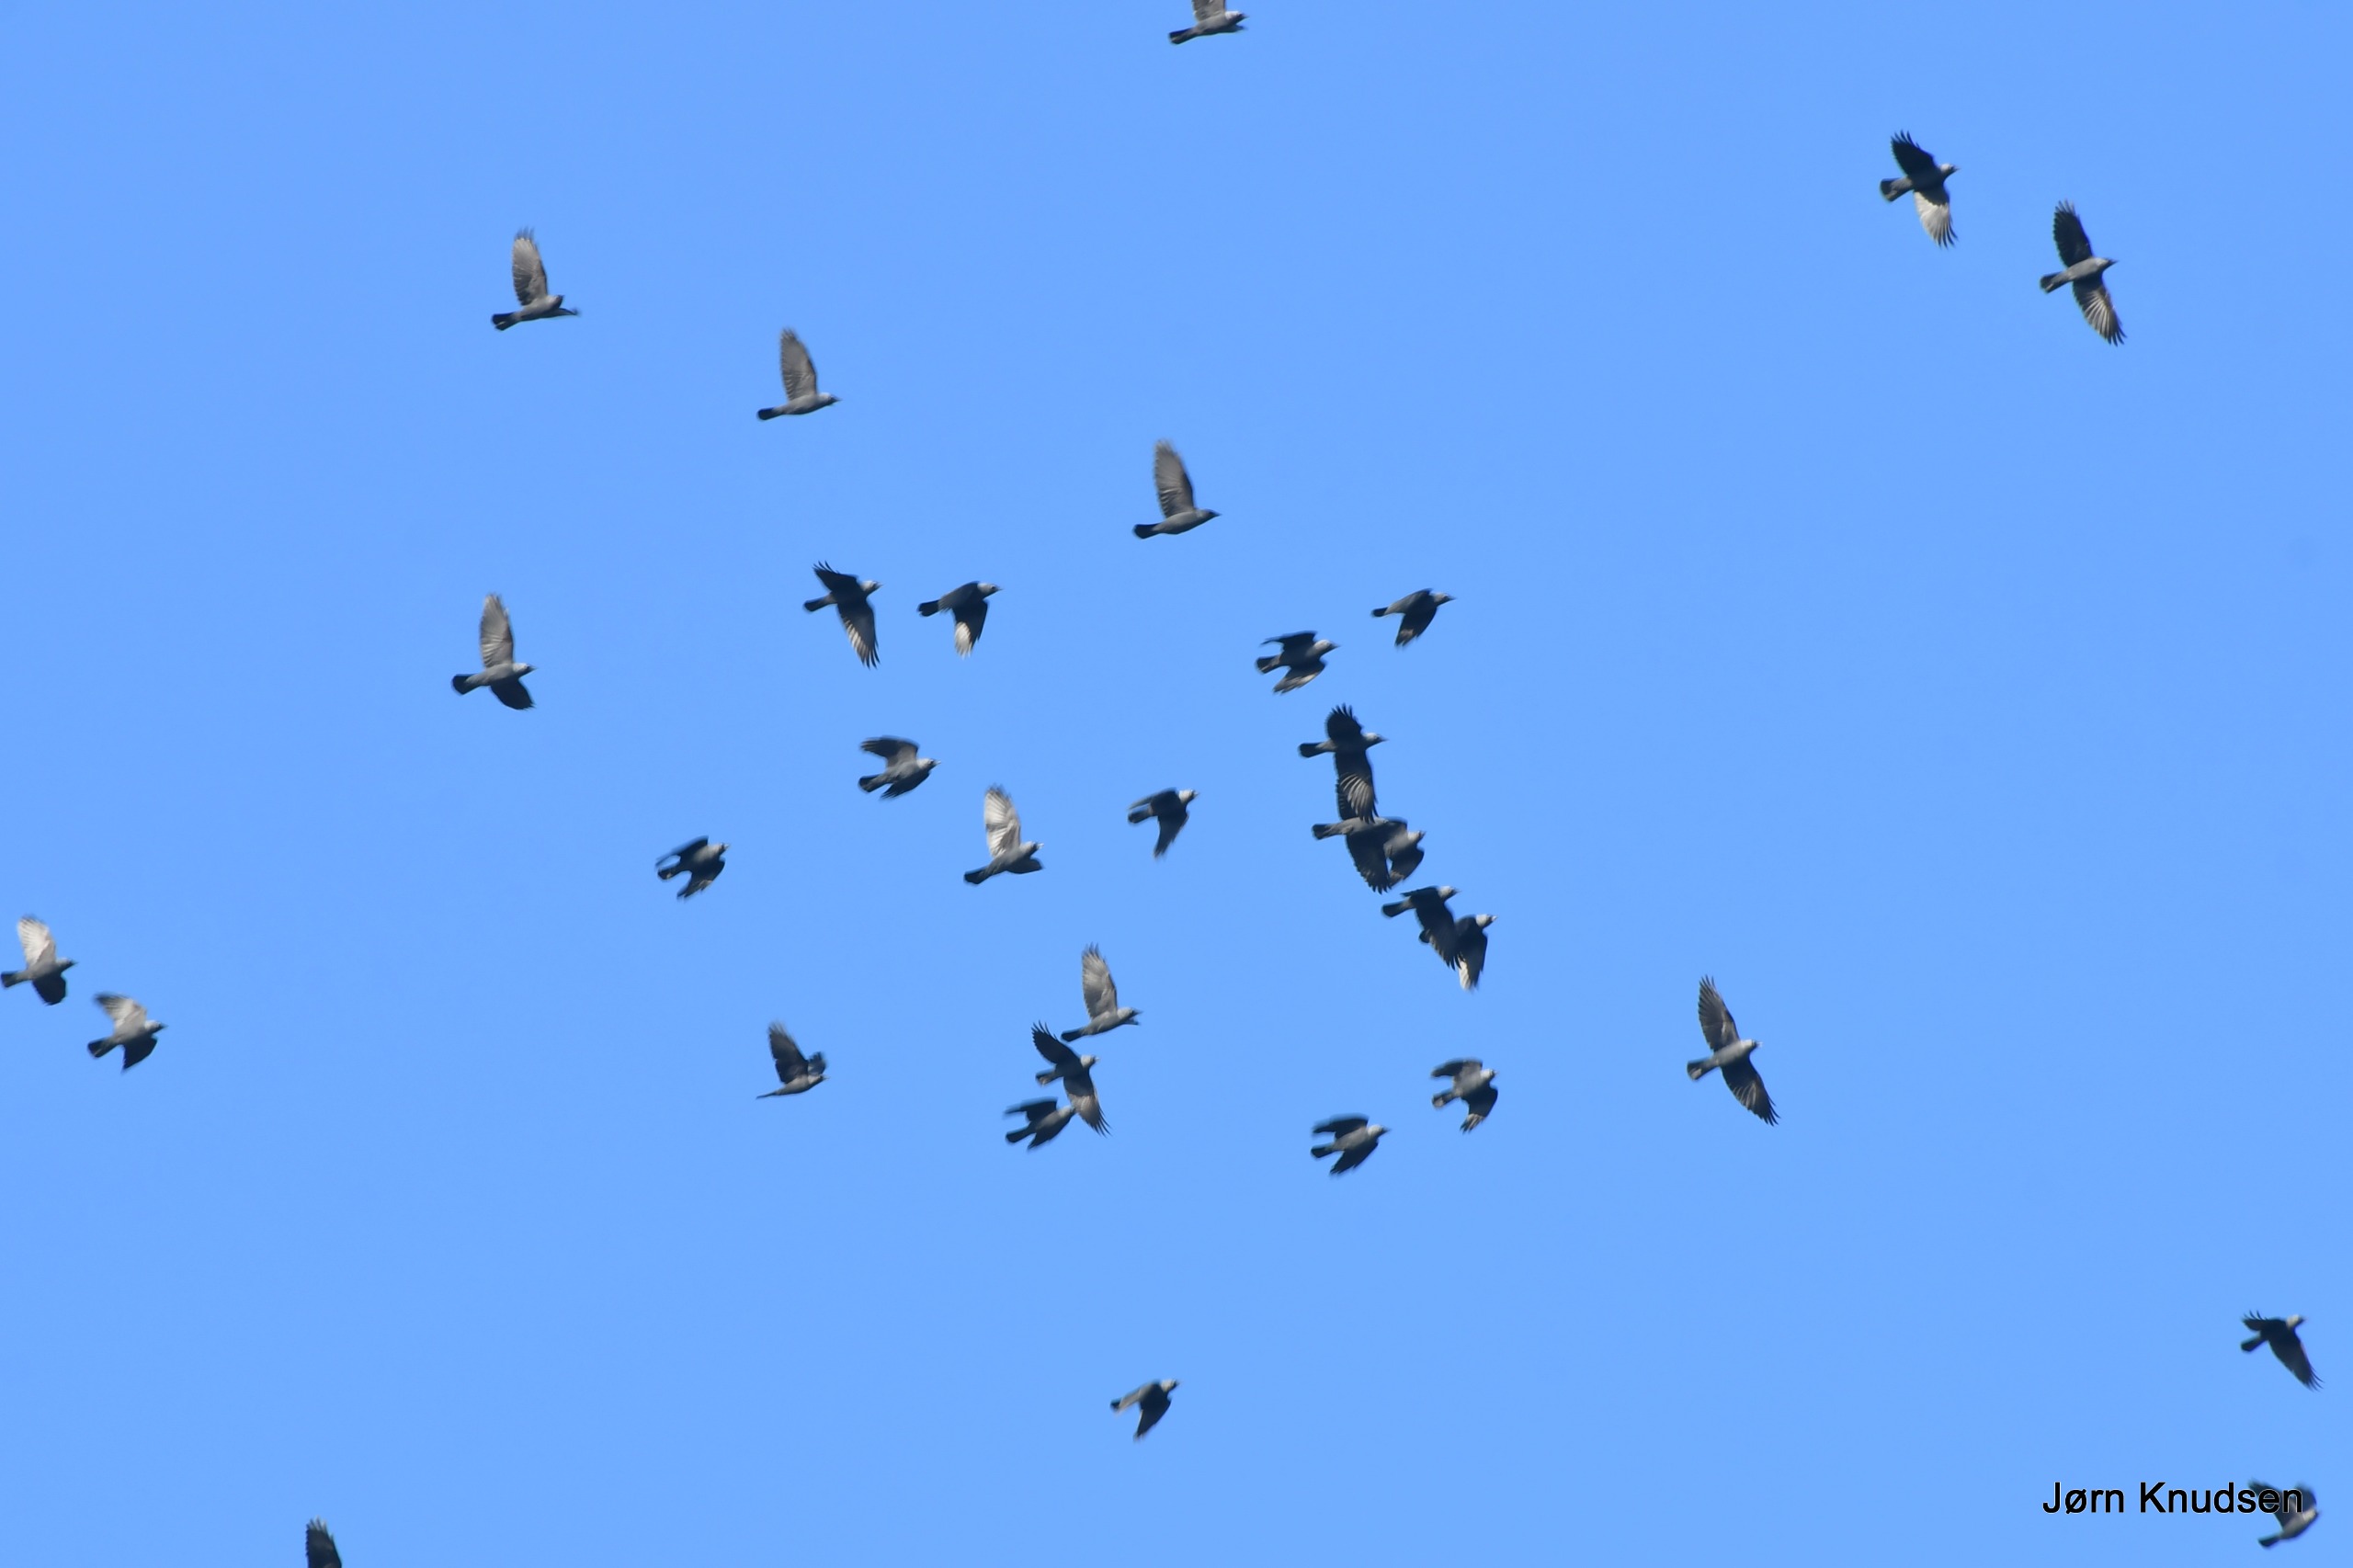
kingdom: Animalia
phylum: Chordata
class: Aves
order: Passeriformes
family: Corvidae
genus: Coloeus
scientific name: Coloeus monedula
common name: Allike
